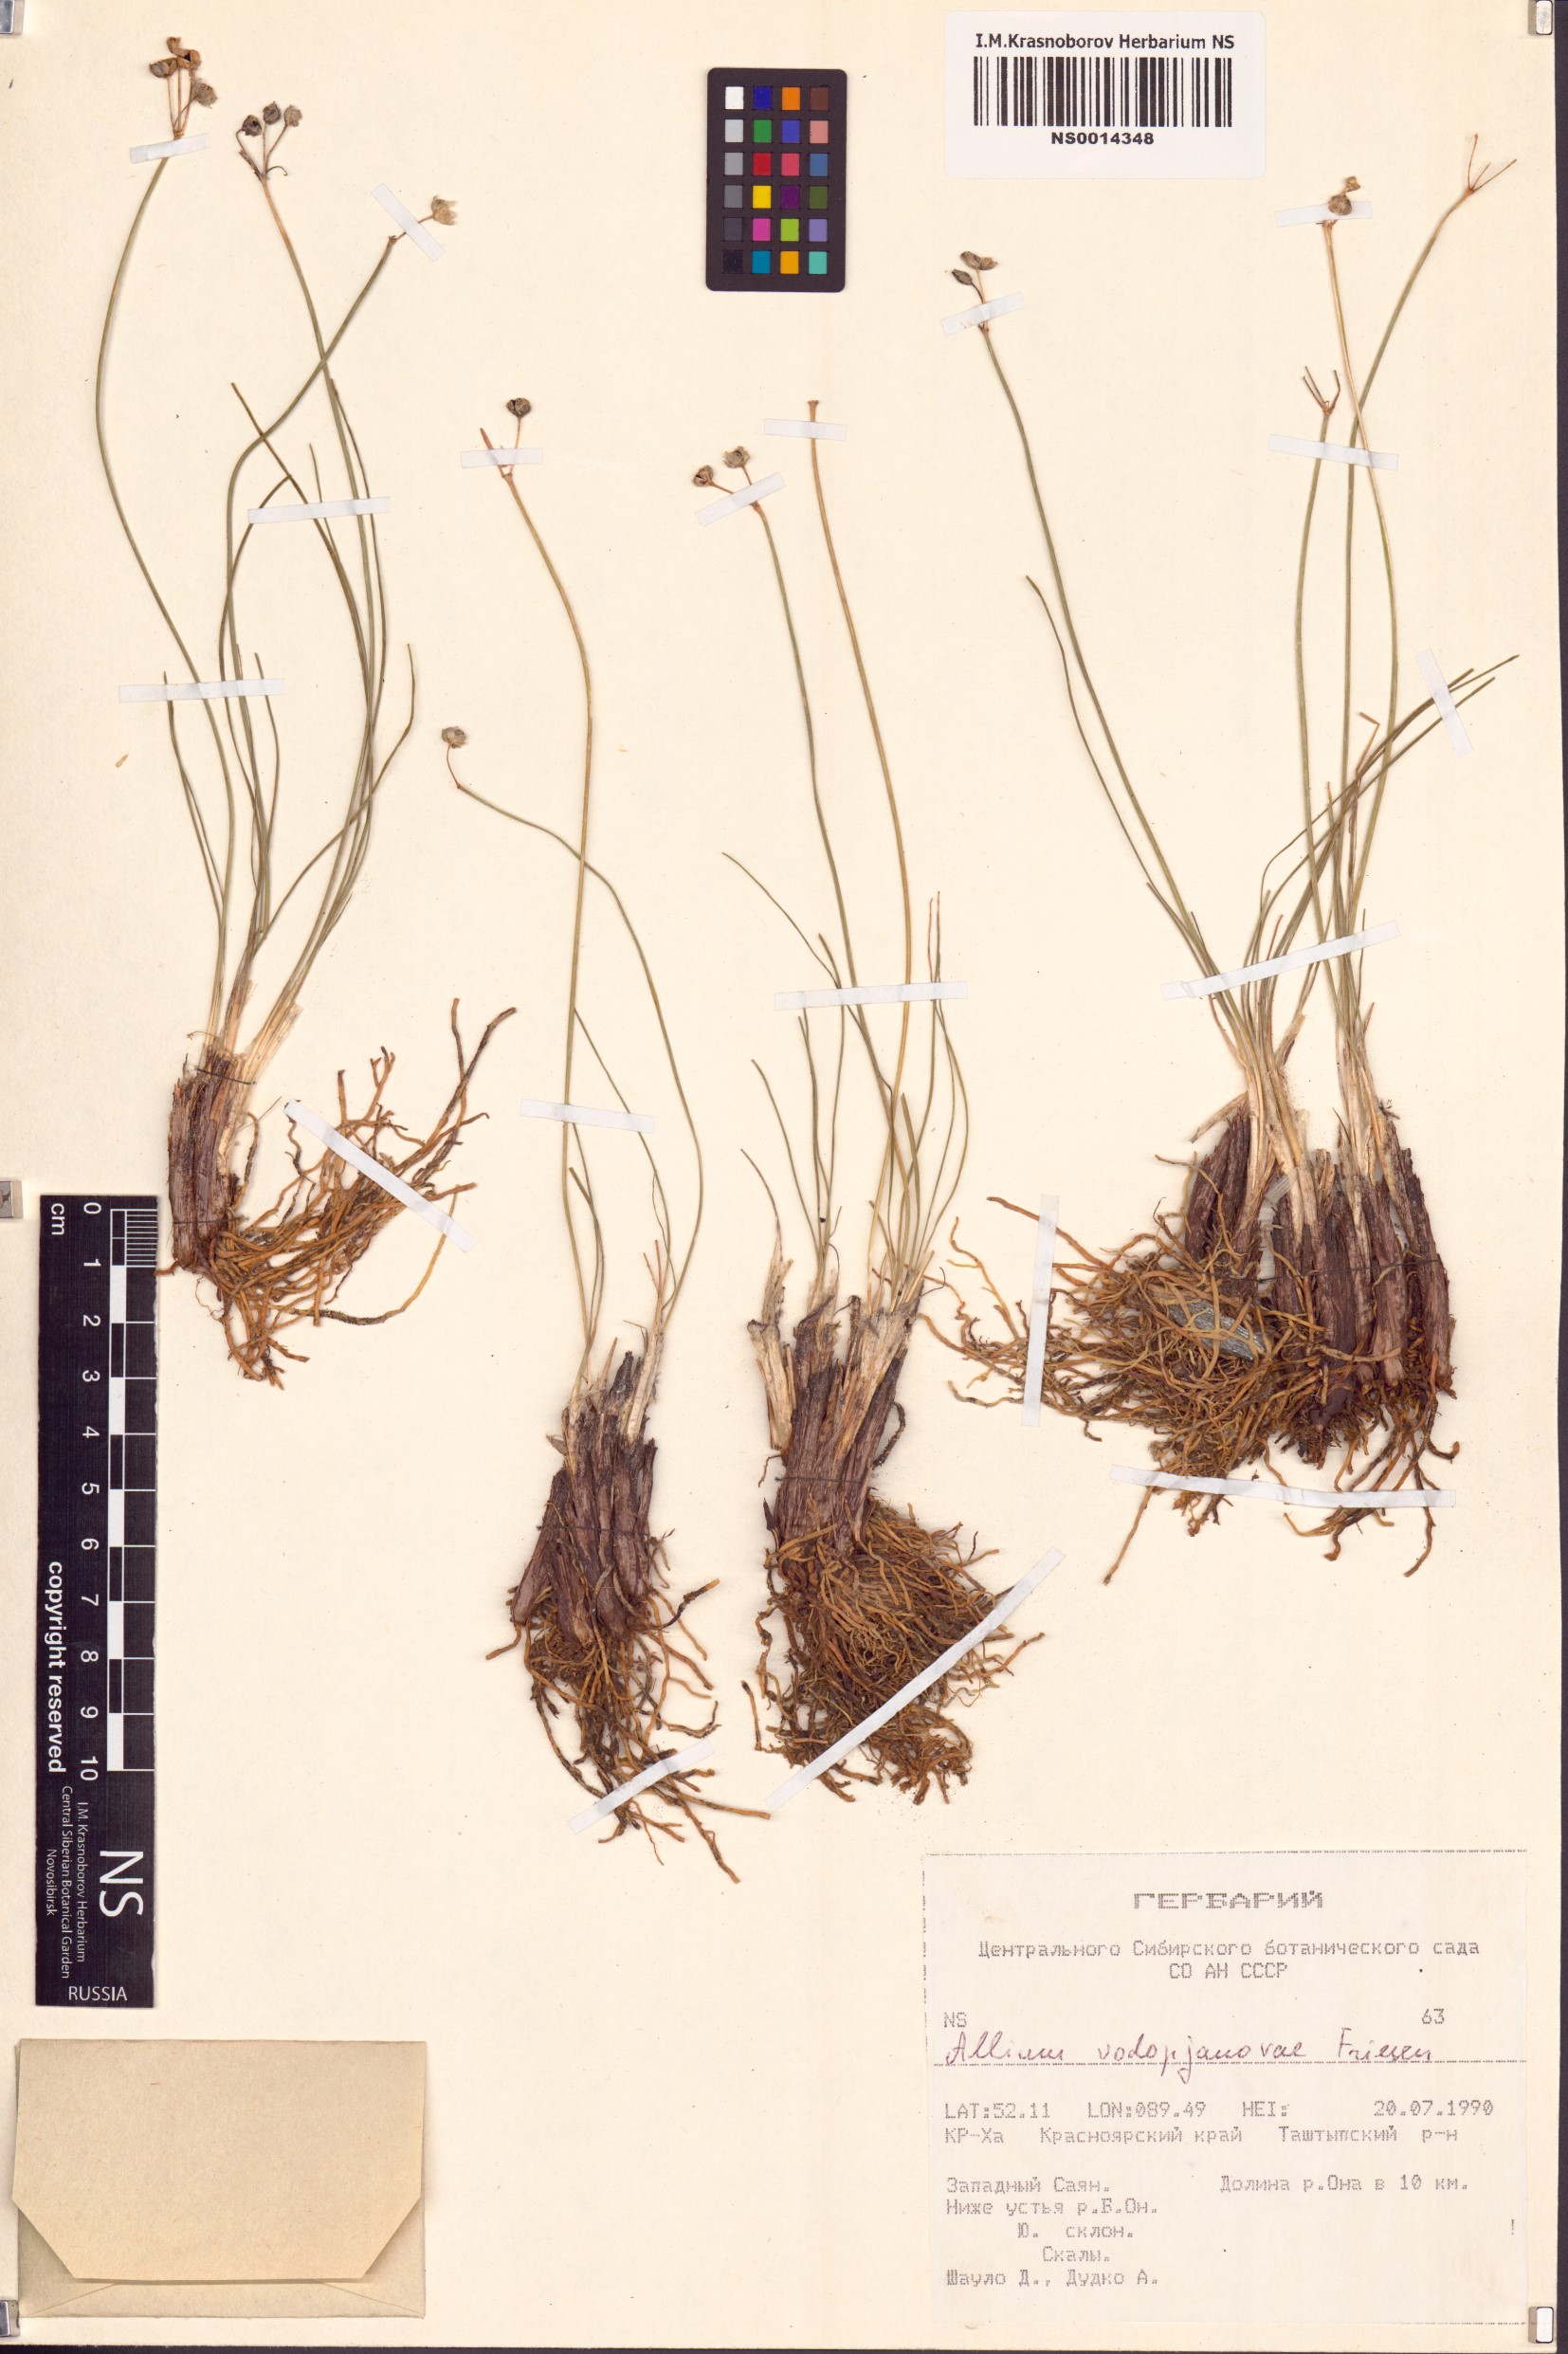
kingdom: Plantae
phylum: Tracheophyta
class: Liliopsida
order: Asparagales
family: Amaryllidaceae
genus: Allium
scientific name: Allium vodopjanovae
